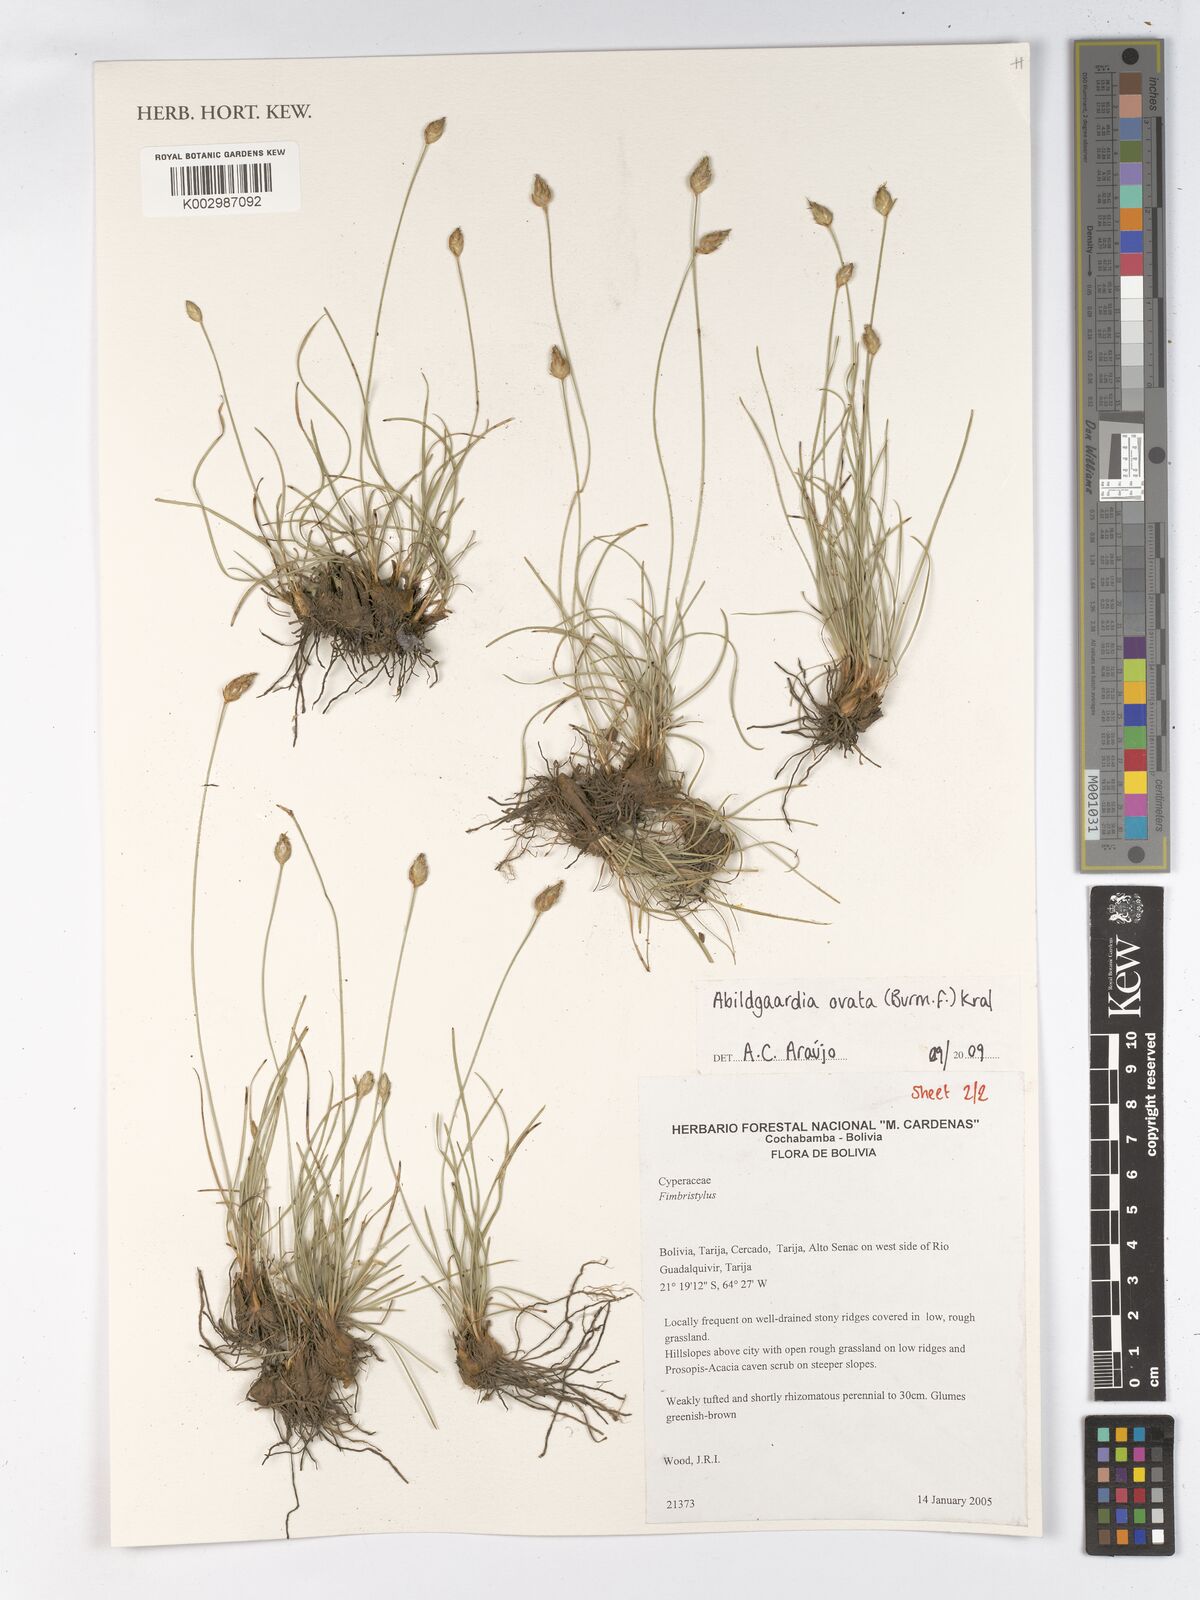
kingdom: Plantae
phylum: Tracheophyta
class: Liliopsida
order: Poales
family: Cyperaceae
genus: Abildgaardia
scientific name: Abildgaardia ovata
